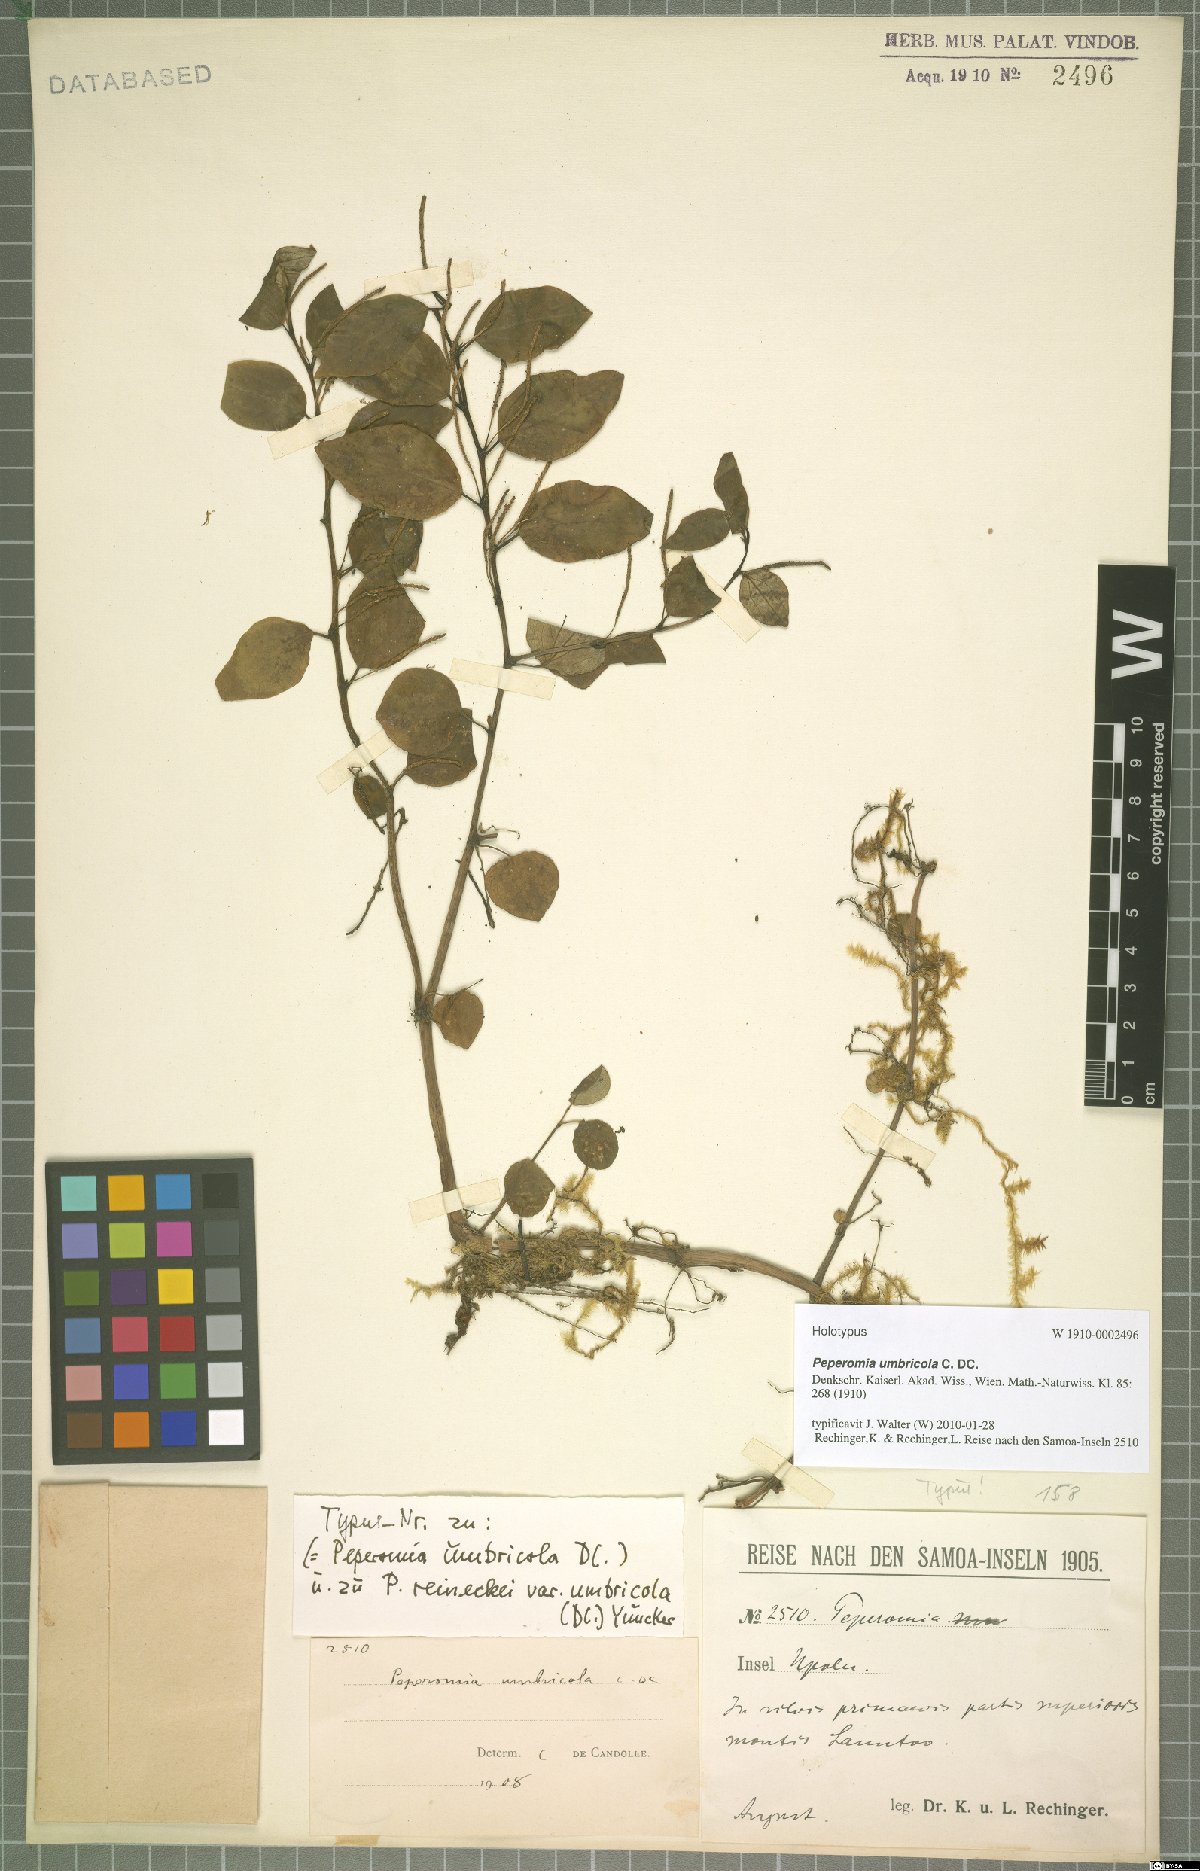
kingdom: Plantae
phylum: Tracheophyta
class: Magnoliopsida
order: Piperales
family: Piperaceae
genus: Peperomia
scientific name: Peperomia reineckei
